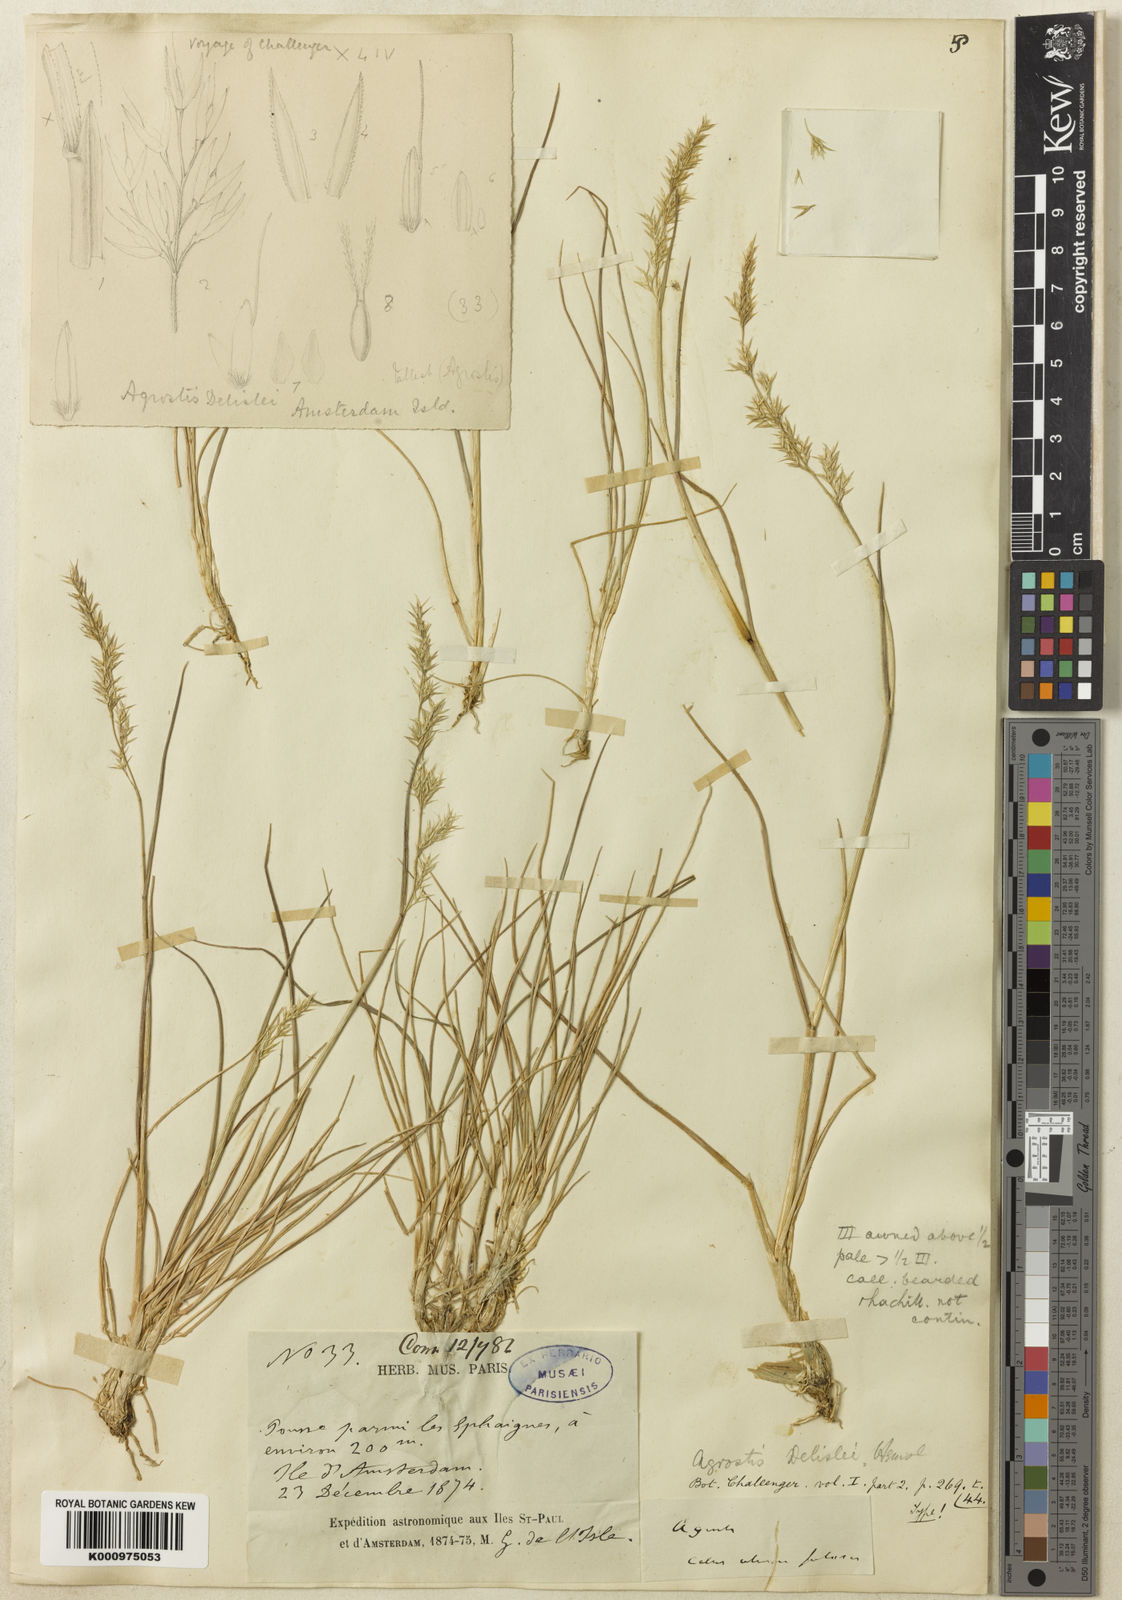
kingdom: Plantae
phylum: Tracheophyta
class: Liliopsida
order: Poales
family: Poaceae
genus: Agrostis
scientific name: Agrostis delislei
